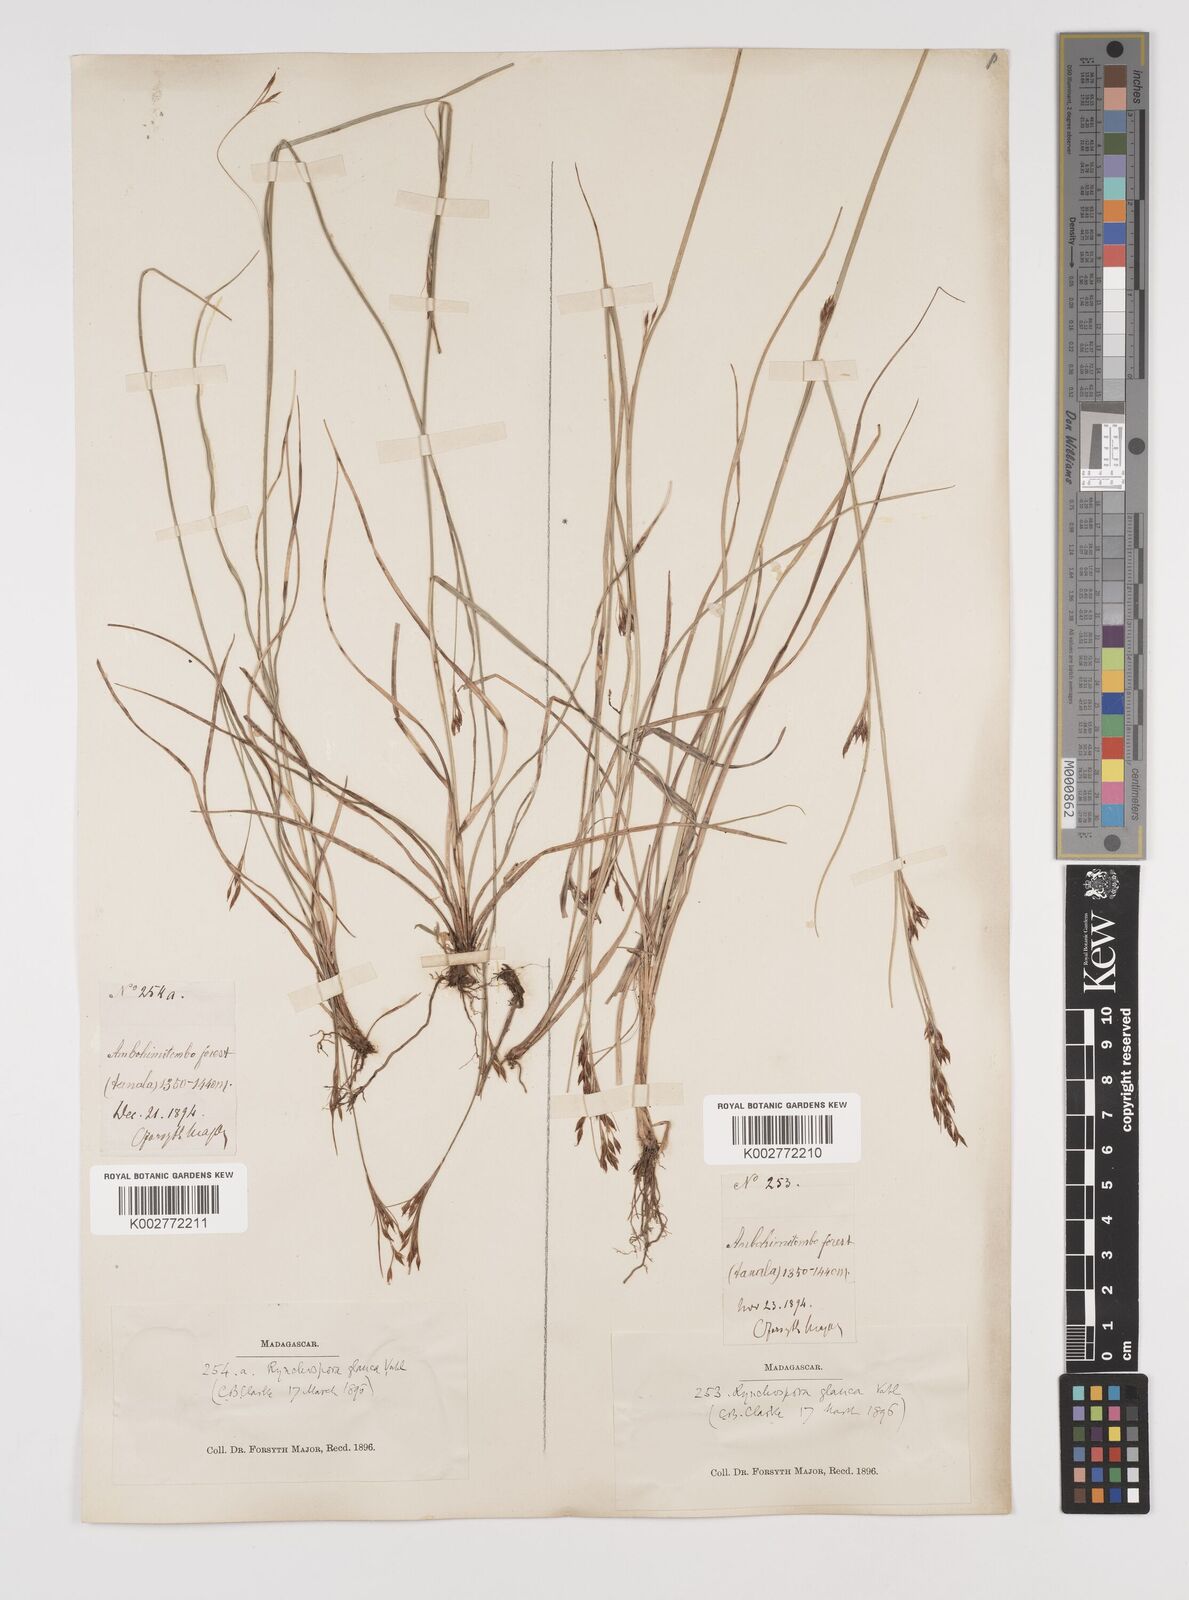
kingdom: Plantae
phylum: Tracheophyta
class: Liliopsida
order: Poales
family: Cyperaceae
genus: Rhynchospora
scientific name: Rhynchospora rugosa
